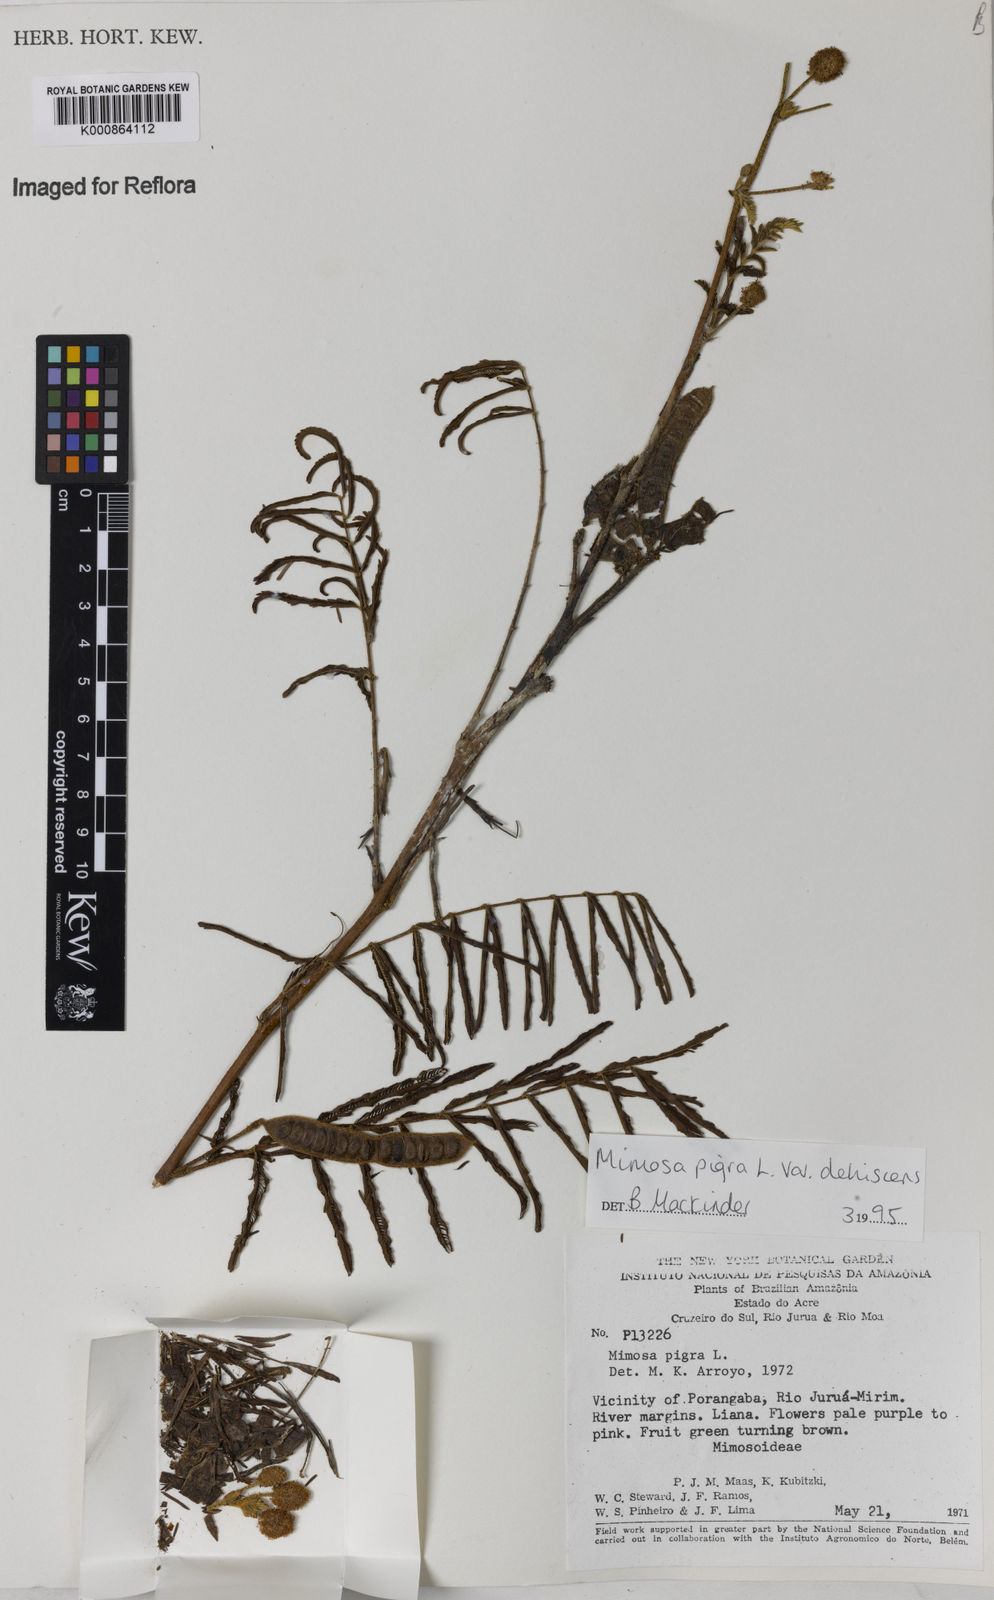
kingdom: Plantae
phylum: Tracheophyta
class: Magnoliopsida
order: Fabales
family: Fabaceae
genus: Mimosa
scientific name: Mimosa pigra
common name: Black mimosa
